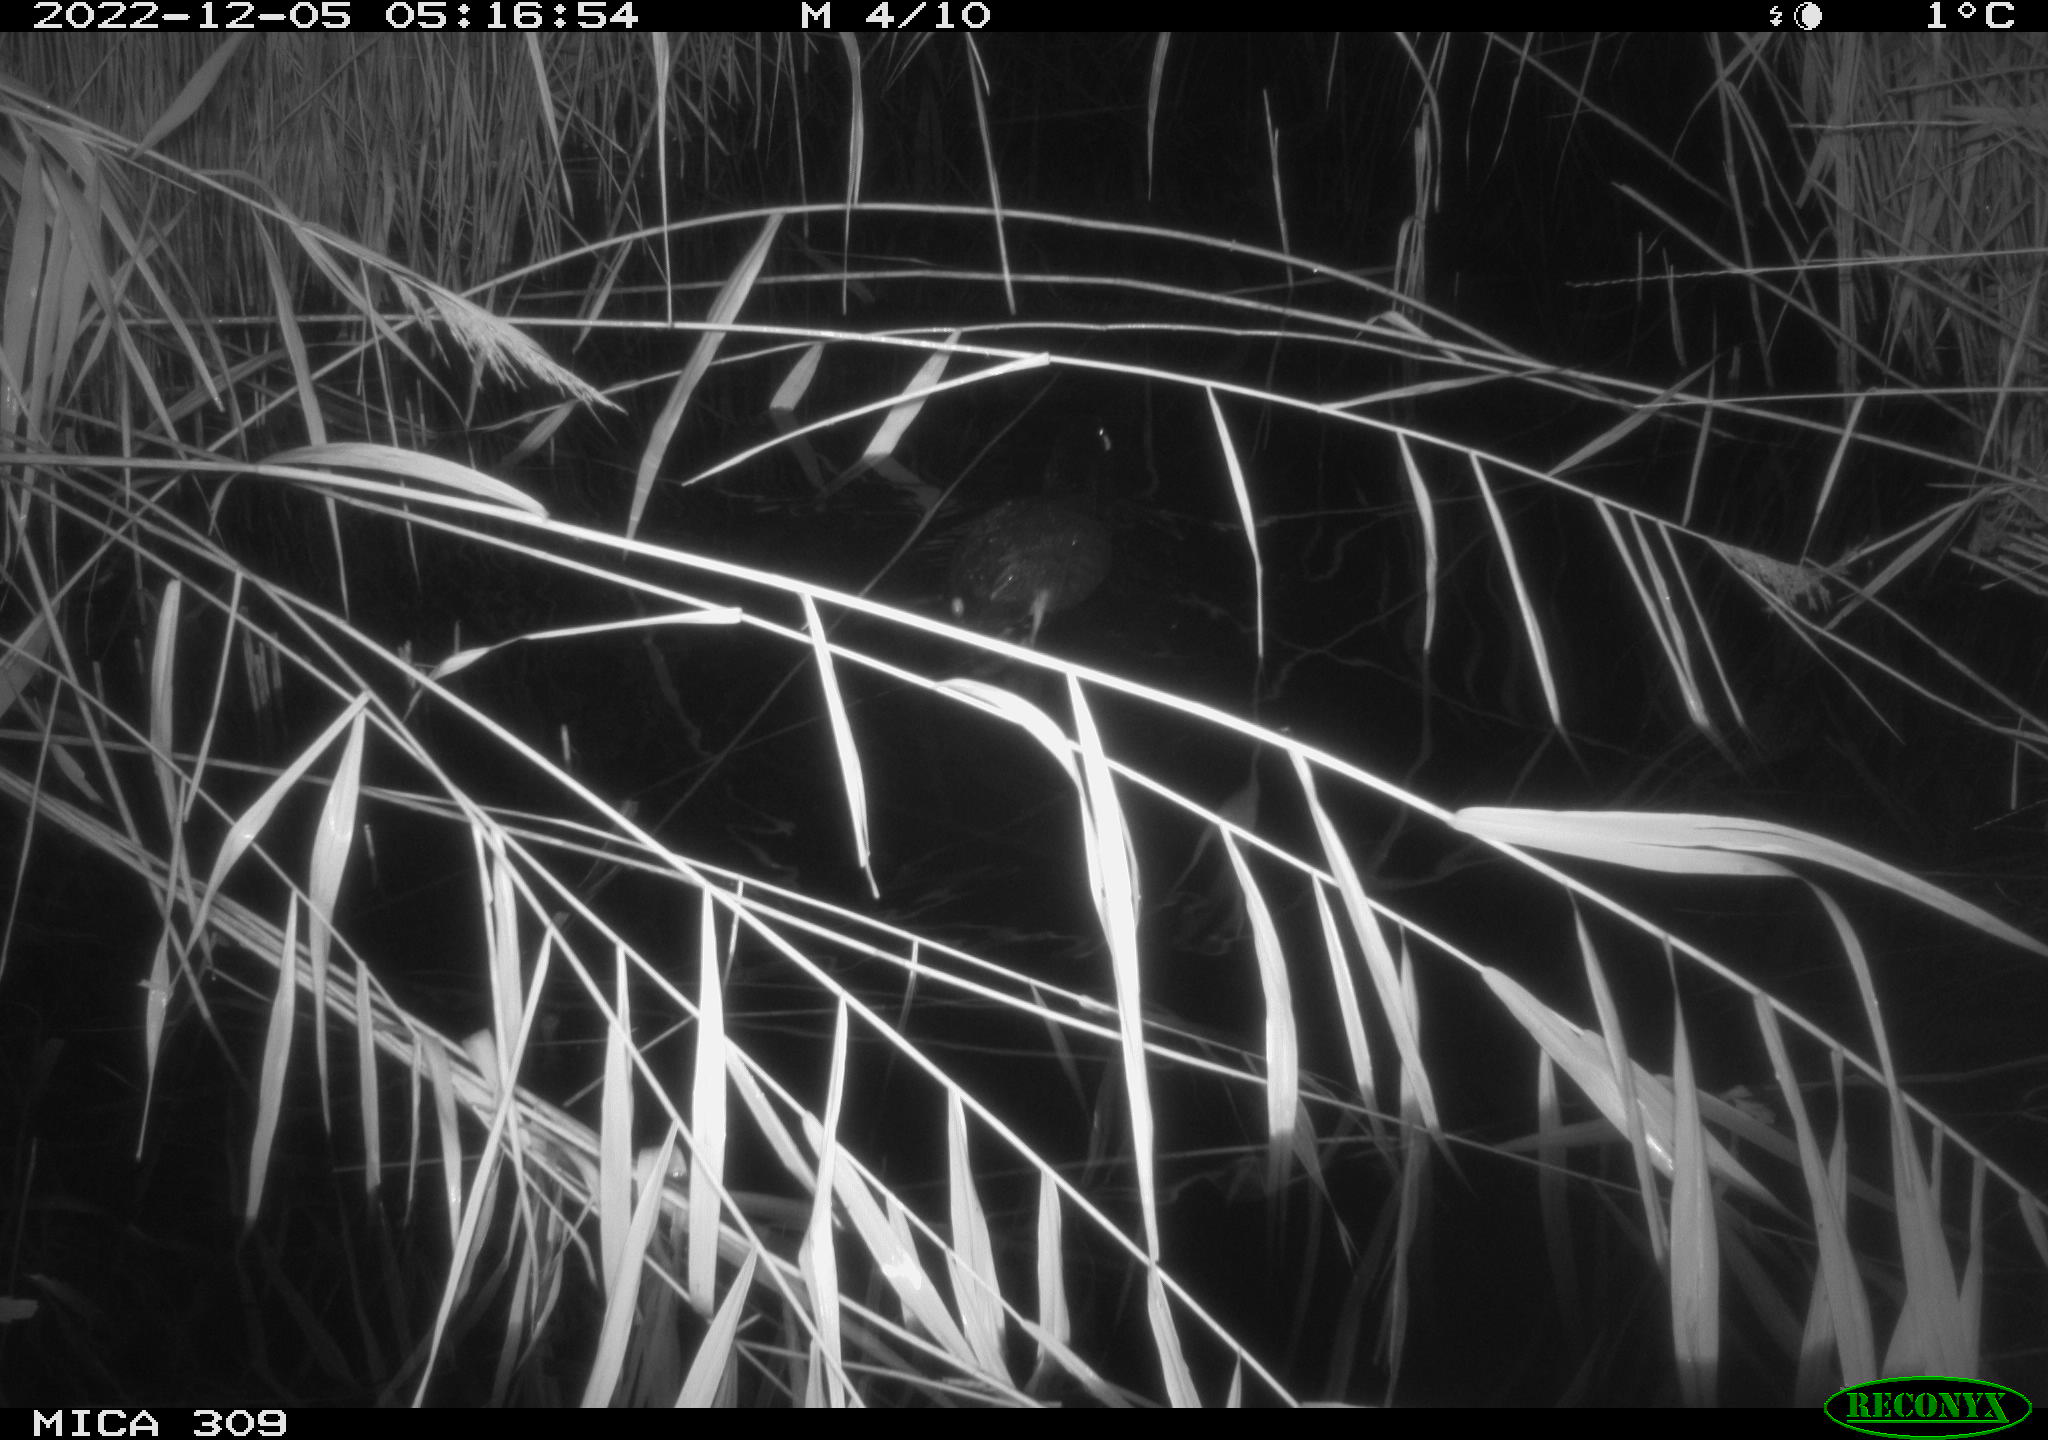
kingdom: Animalia
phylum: Chordata
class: Aves
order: Anseriformes
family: Anatidae
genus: Anas
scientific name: Anas
